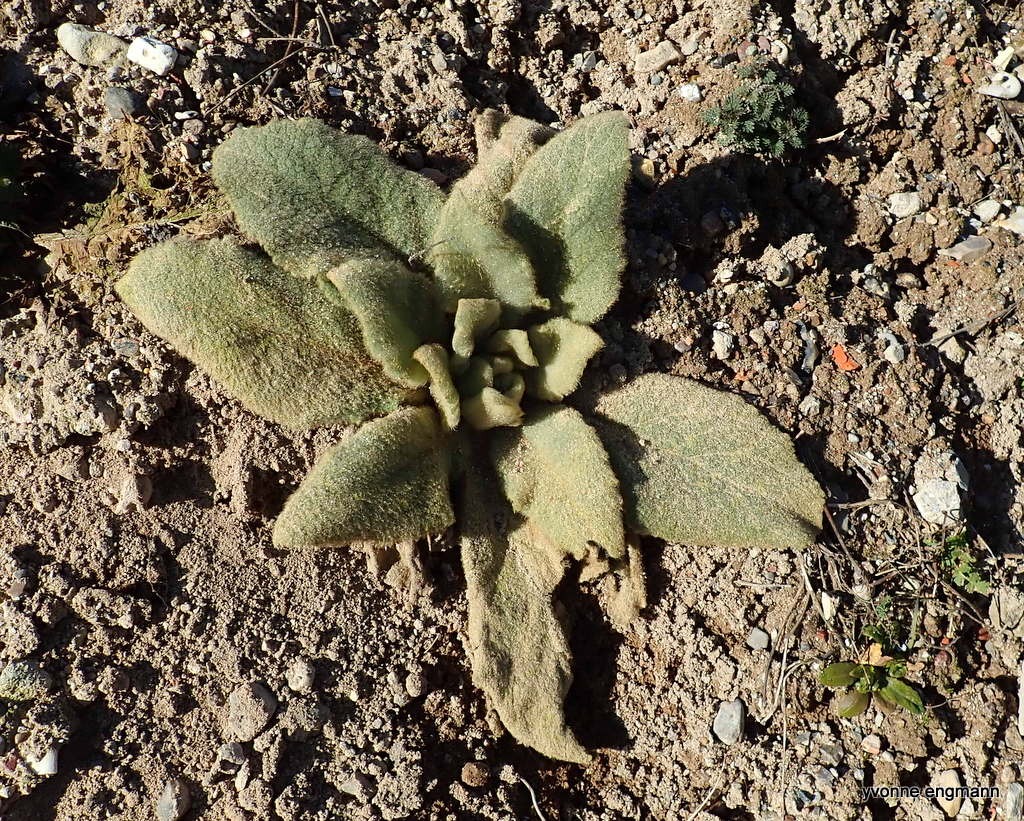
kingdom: Plantae
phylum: Tracheophyta
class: Magnoliopsida
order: Lamiales
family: Scrophulariaceae
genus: Verbascum
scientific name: Verbascum
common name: Kongelysslægten
